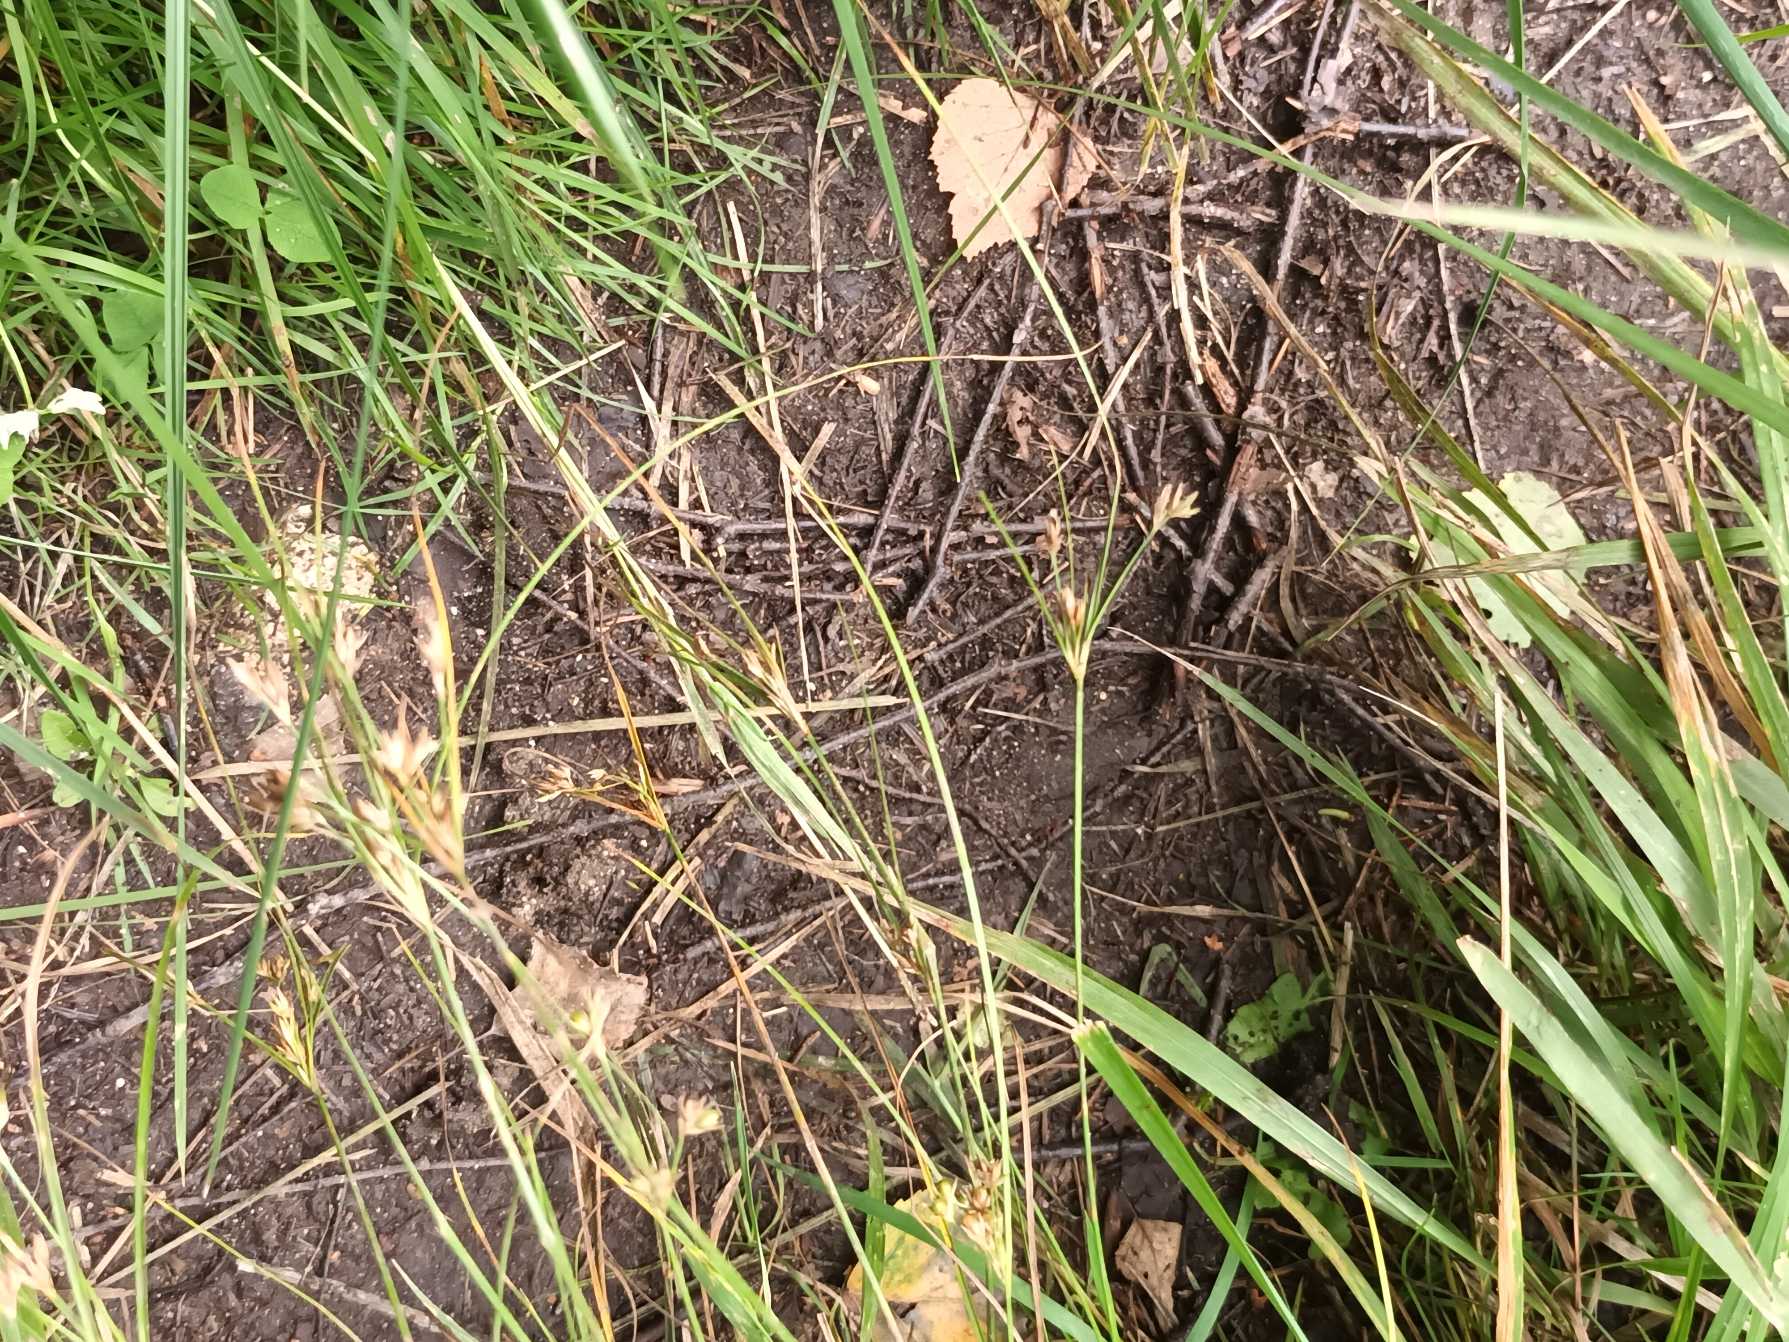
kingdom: Plantae
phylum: Tracheophyta
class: Liliopsida
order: Poales
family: Juncaceae
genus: Juncus
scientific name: Juncus tenuis
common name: Tue-siv
